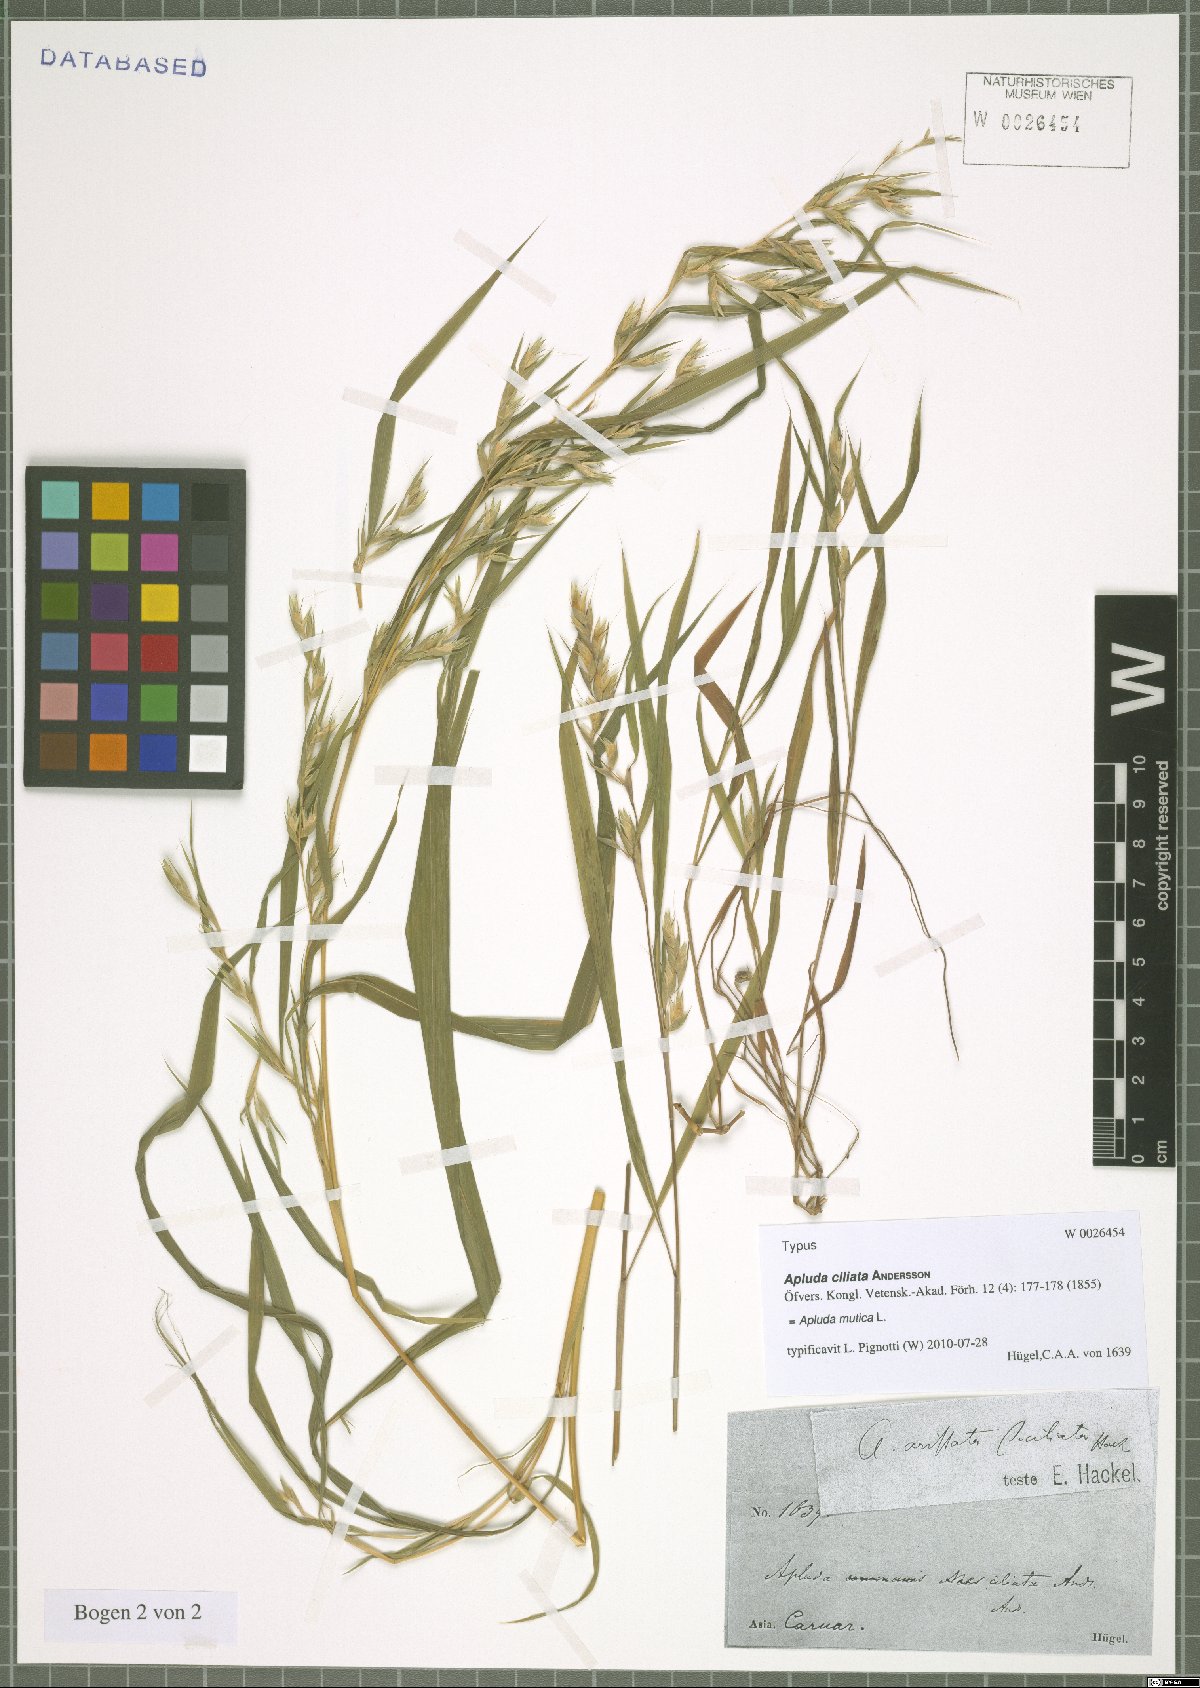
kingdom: Plantae
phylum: Tracheophyta
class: Liliopsida
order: Poales
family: Poaceae
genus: Apluda
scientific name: Apluda mutica
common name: Mauritian grass
